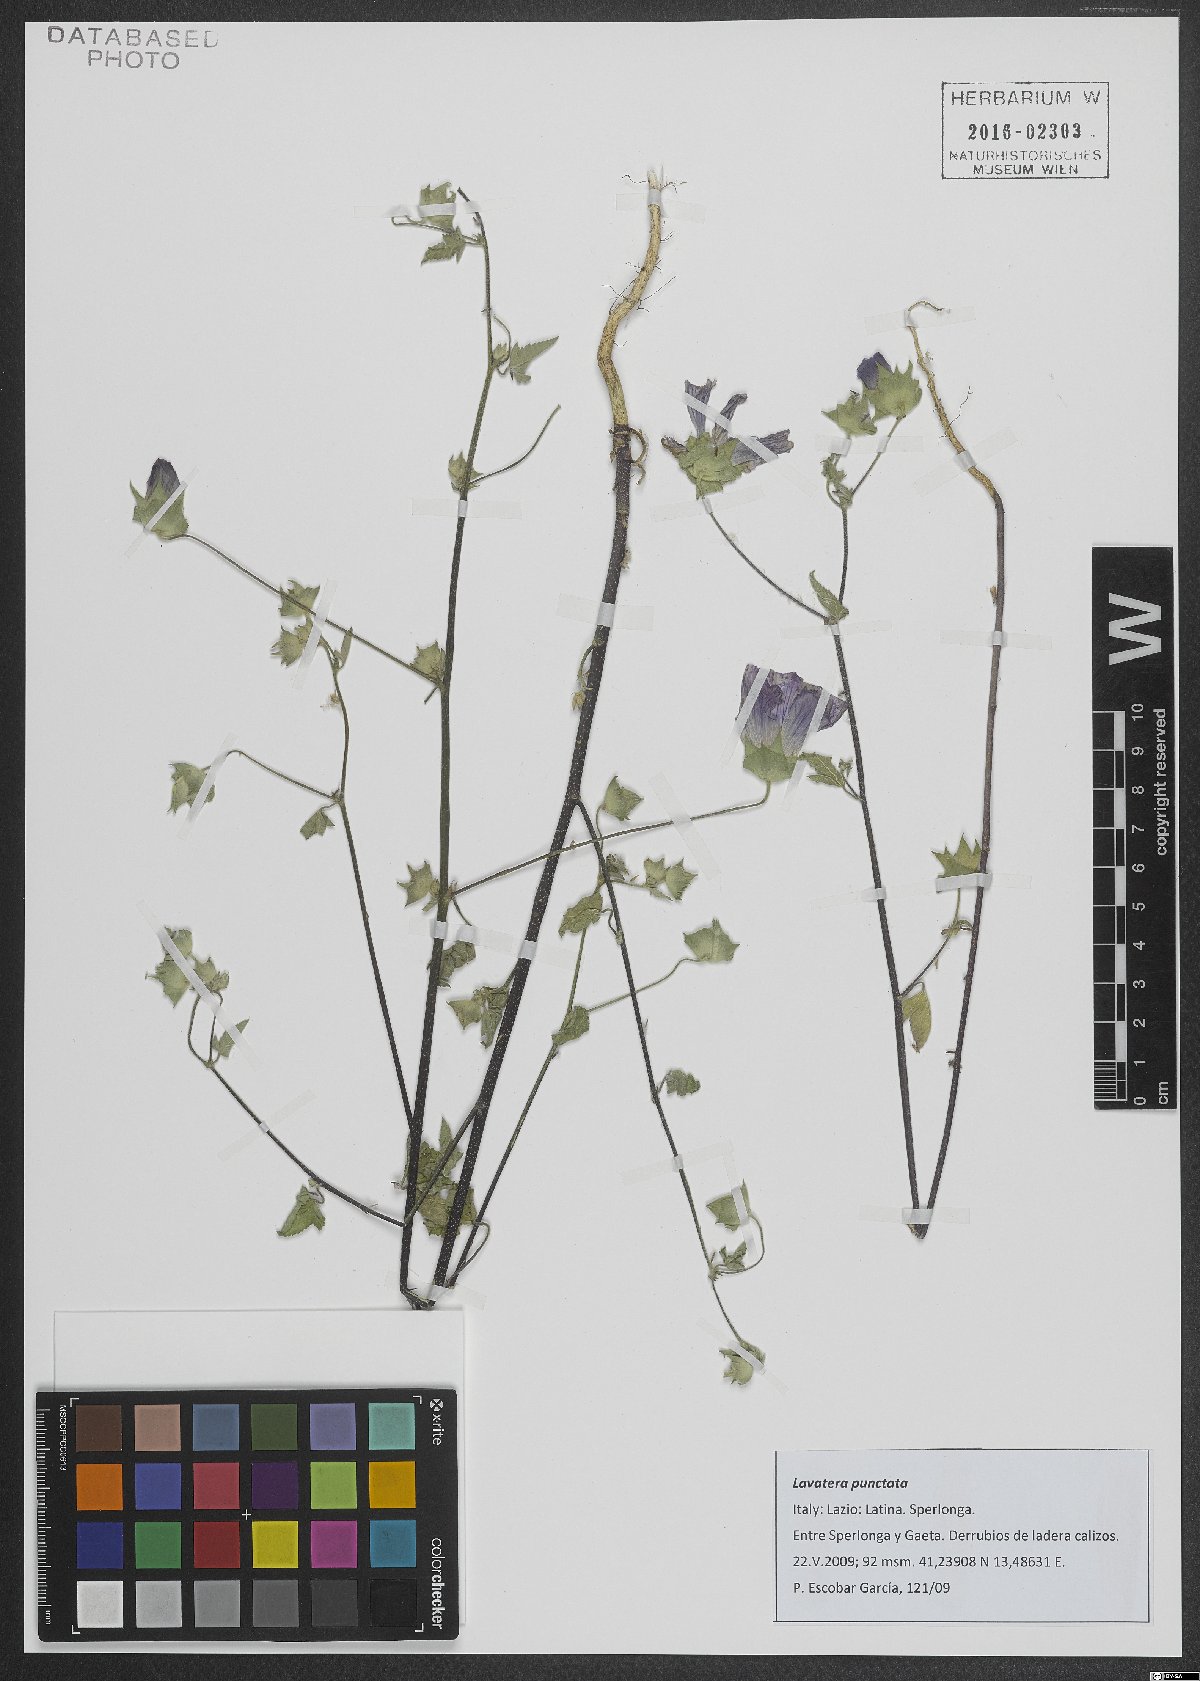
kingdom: Plantae
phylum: Tracheophyta
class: Magnoliopsida
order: Malvales
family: Malvaceae
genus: Malva
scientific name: Malva punctata
